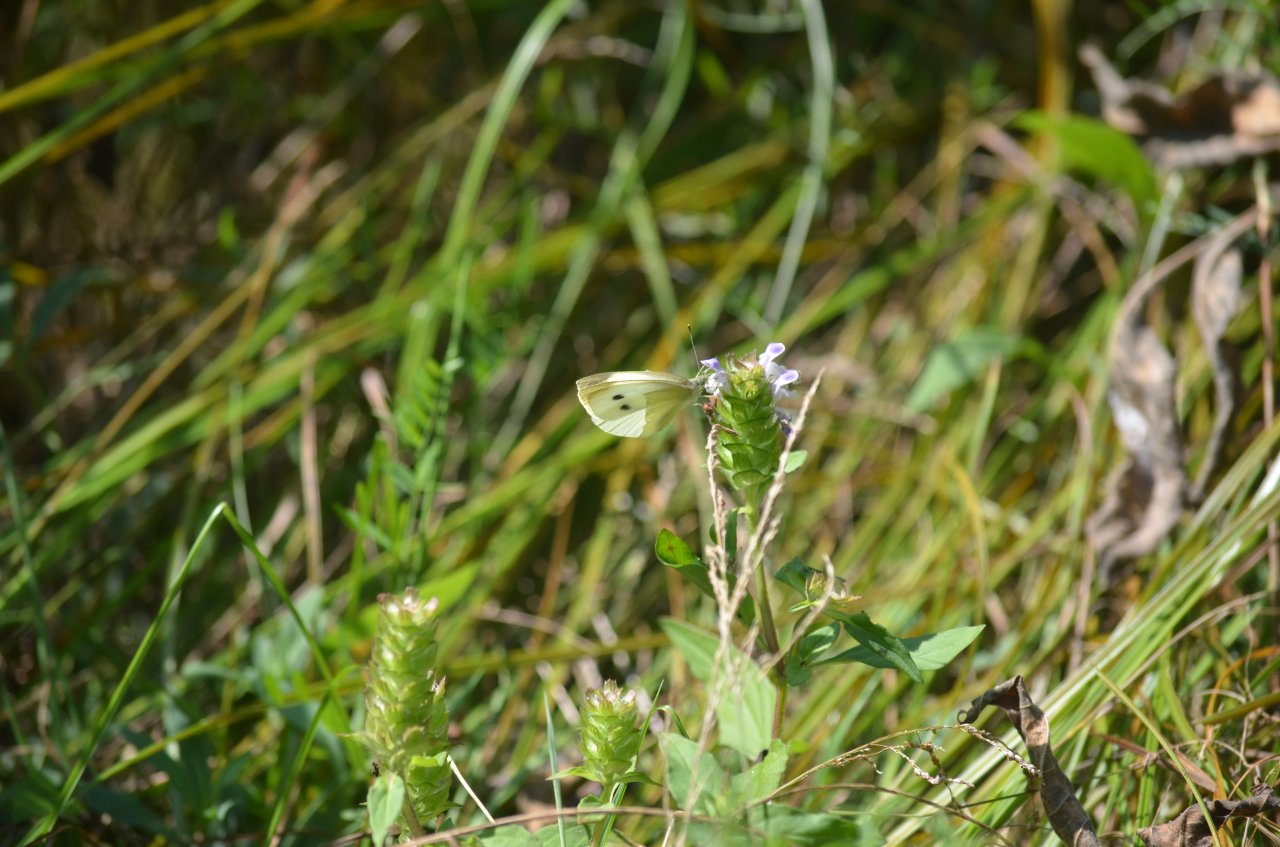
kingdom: Animalia
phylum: Arthropoda
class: Insecta
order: Lepidoptera
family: Pieridae
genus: Pieris
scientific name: Pieris rapae
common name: Cabbage White
